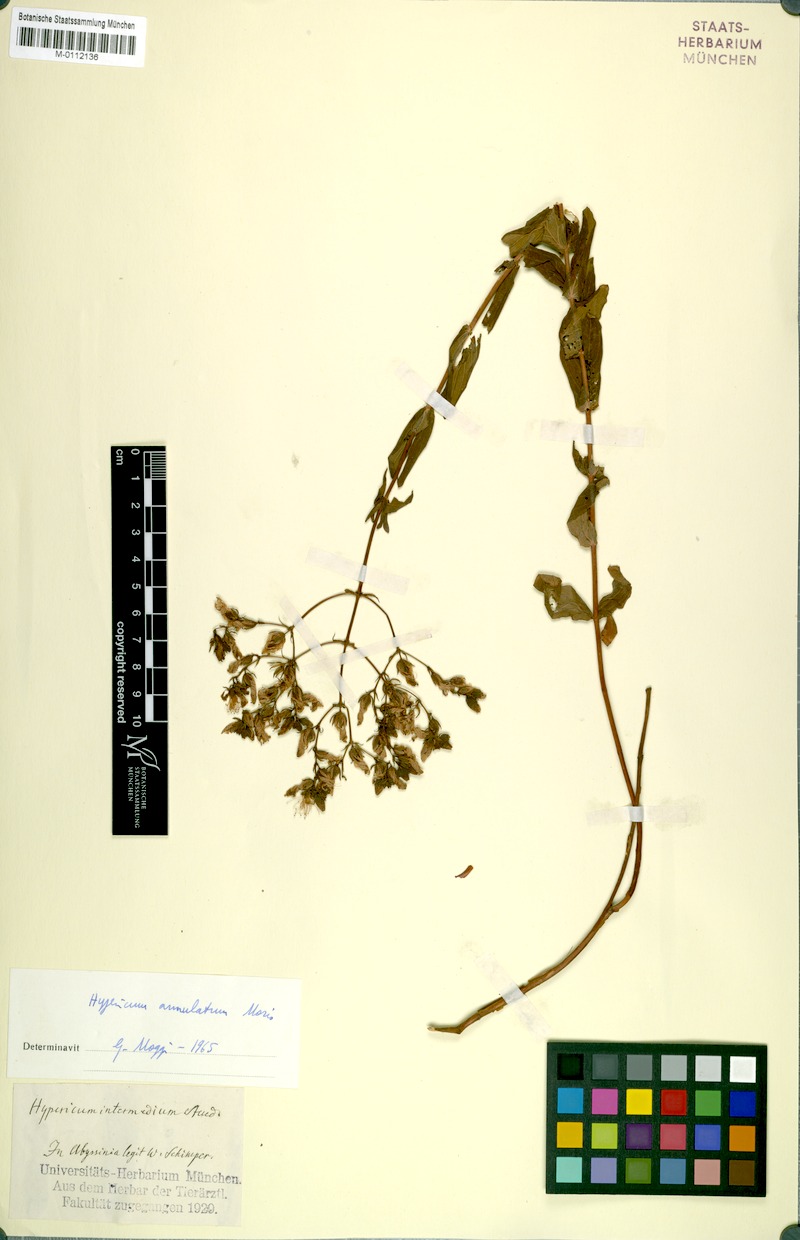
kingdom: Plantae
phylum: Tracheophyta
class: Magnoliopsida
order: Malpighiales
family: Hypericaceae
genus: Hypericum
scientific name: Hypericum annulatum
